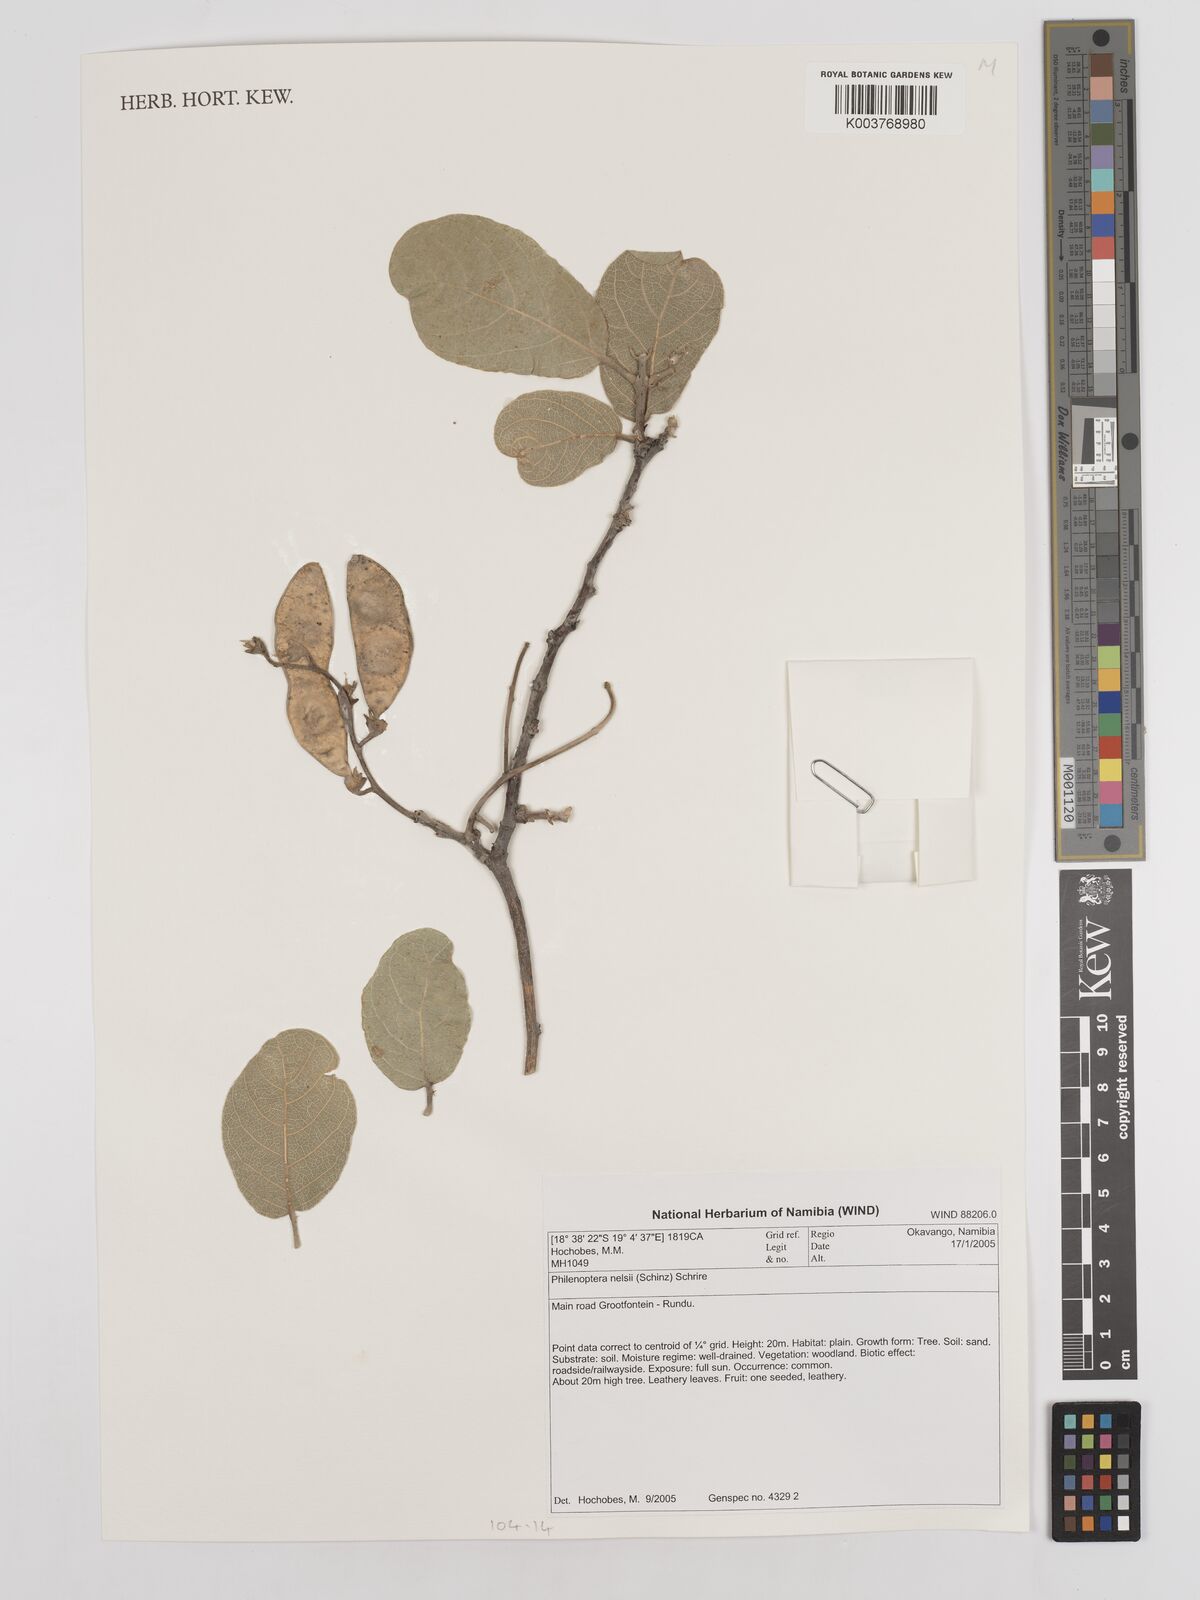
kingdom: Plantae
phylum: Tracheophyta
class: Magnoliopsida
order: Fabales
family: Fabaceae
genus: Philenoptera
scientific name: Philenoptera nelsii
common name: Kalahari apple-leaf
